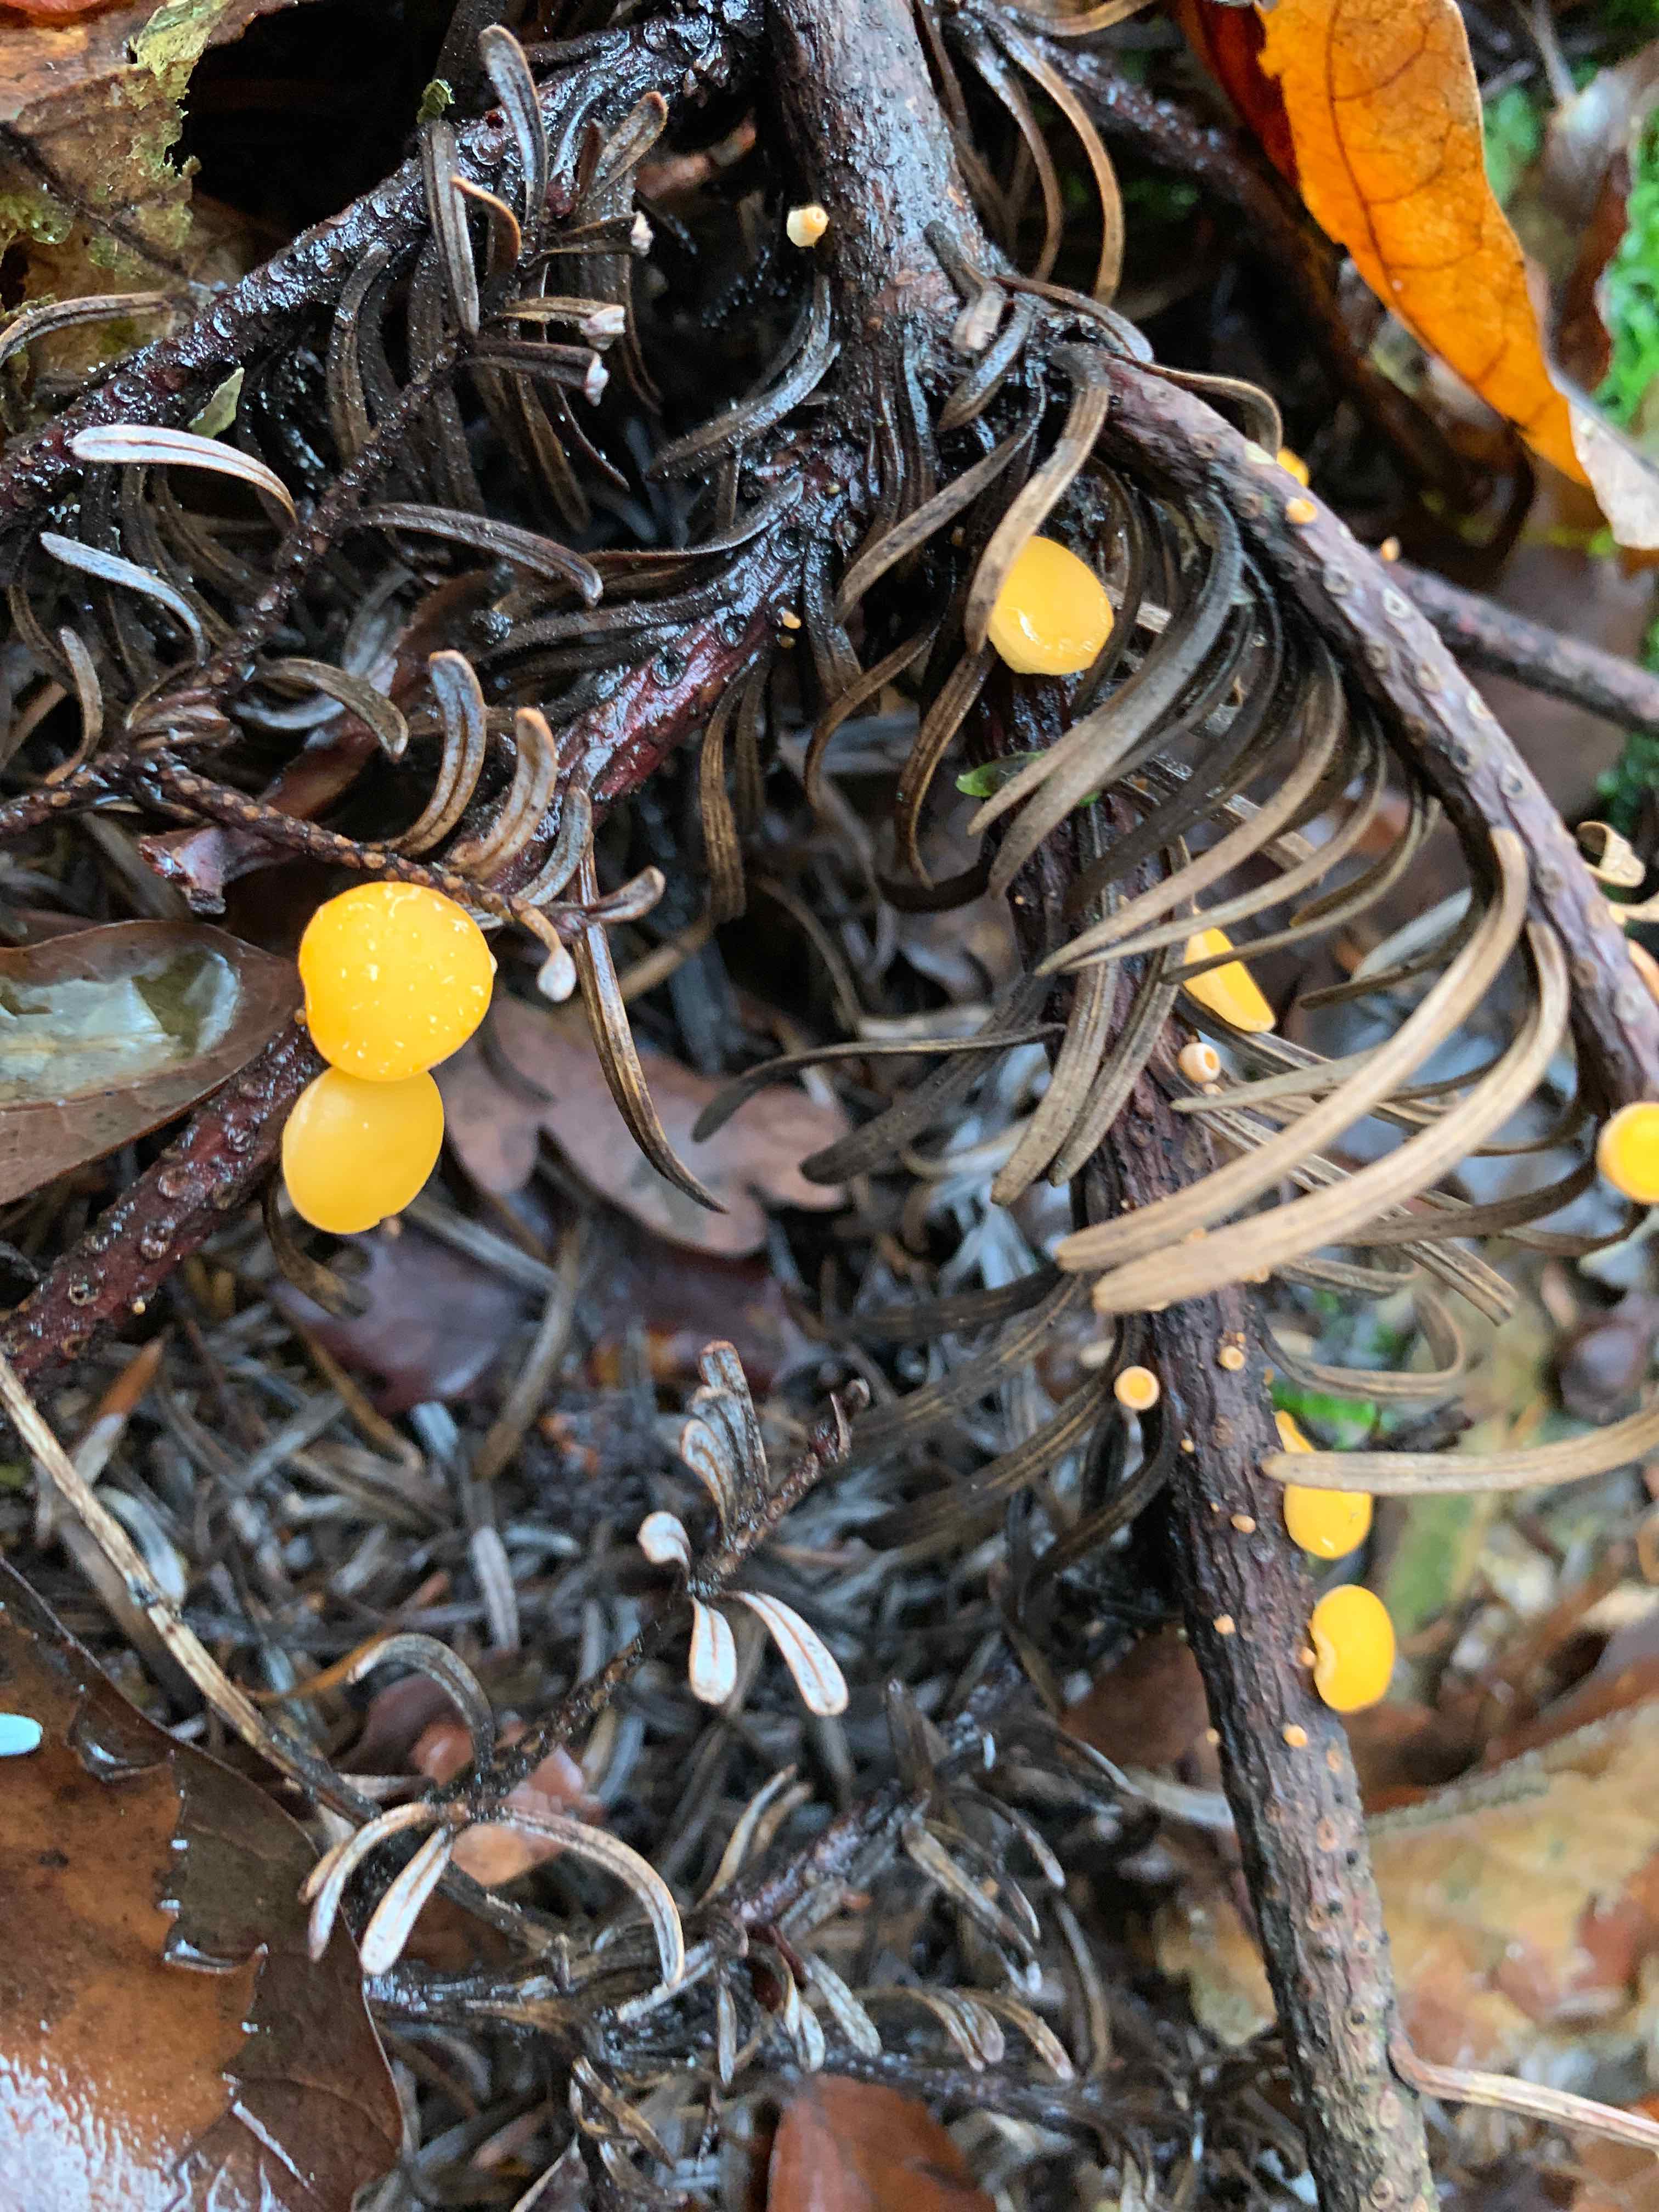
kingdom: Fungi
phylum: Ascomycota
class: Pezizomycetes
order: Pezizales
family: Sarcoscyphaceae
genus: Pithya
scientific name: Pithya vulgaris
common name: stor dukatbæger
